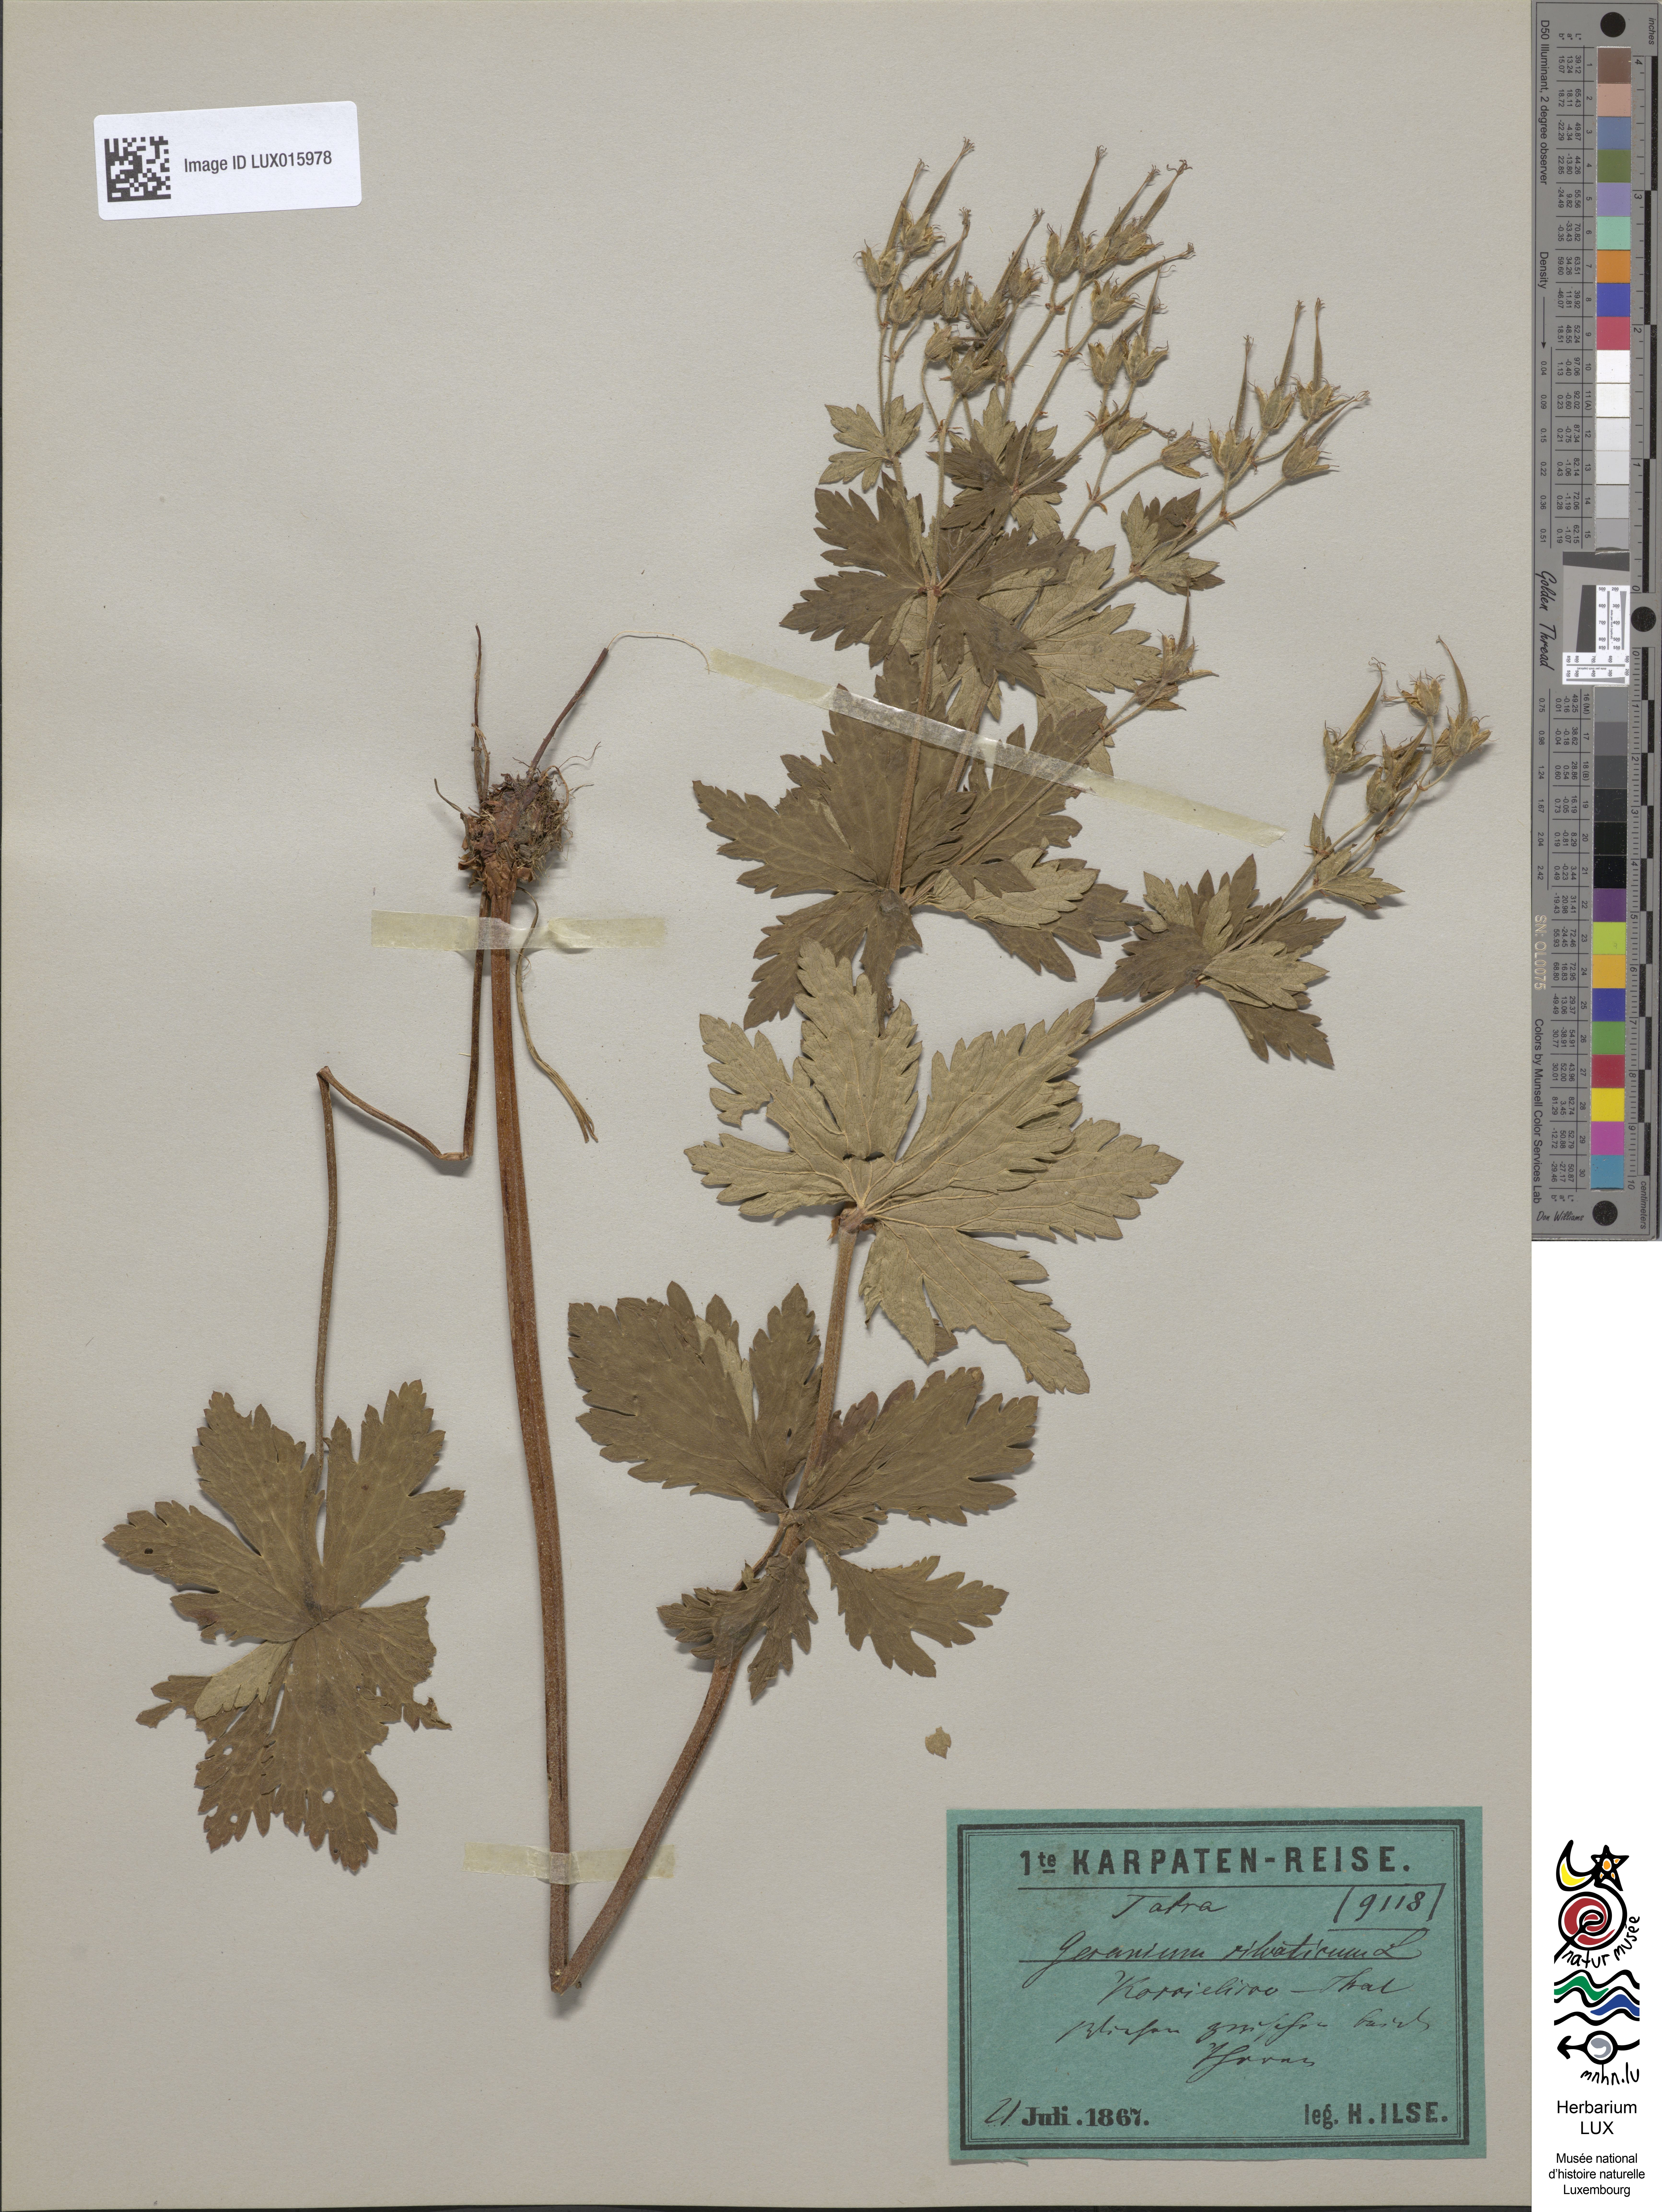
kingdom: Plantae
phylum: Tracheophyta
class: Magnoliopsida
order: Geraniales
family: Geraniaceae
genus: Geranium
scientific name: Geranium sylvaticum
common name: Wood crane's-bill
